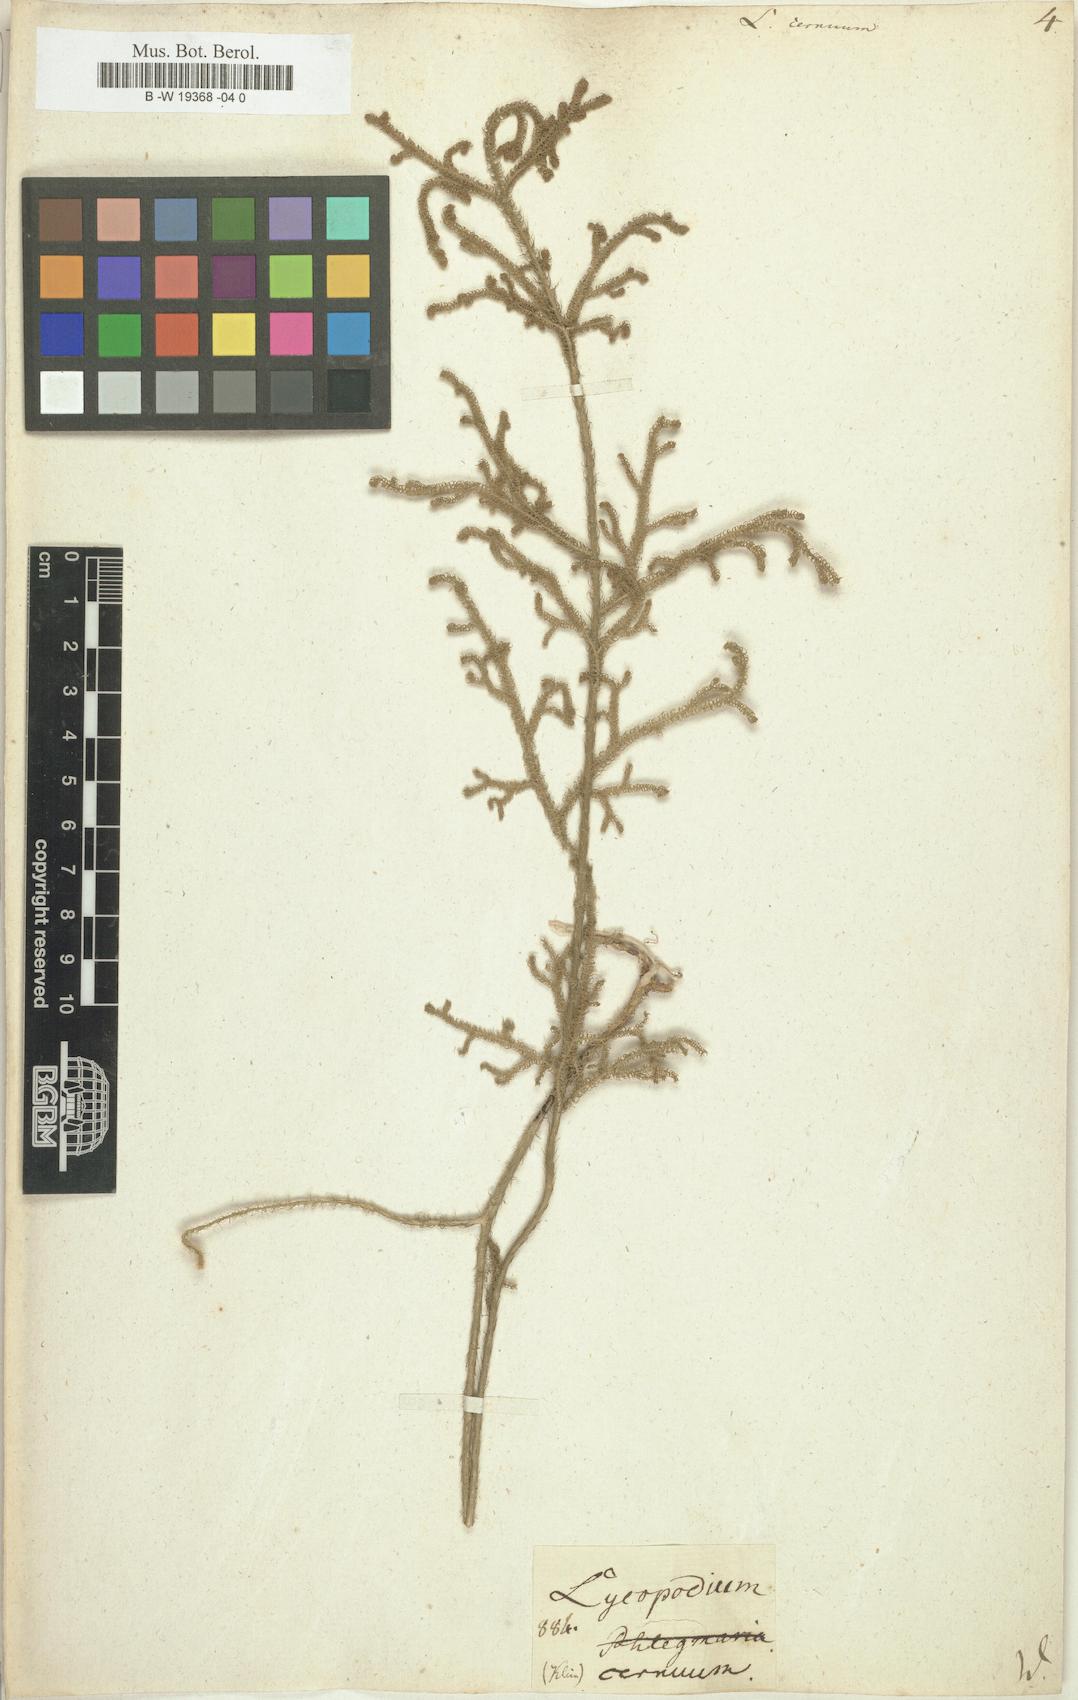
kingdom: Plantae
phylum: Tracheophyta
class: Lycopodiopsida
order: Lycopodiales
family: Lycopodiaceae
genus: Palhinhaea
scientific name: Palhinhaea cernua
